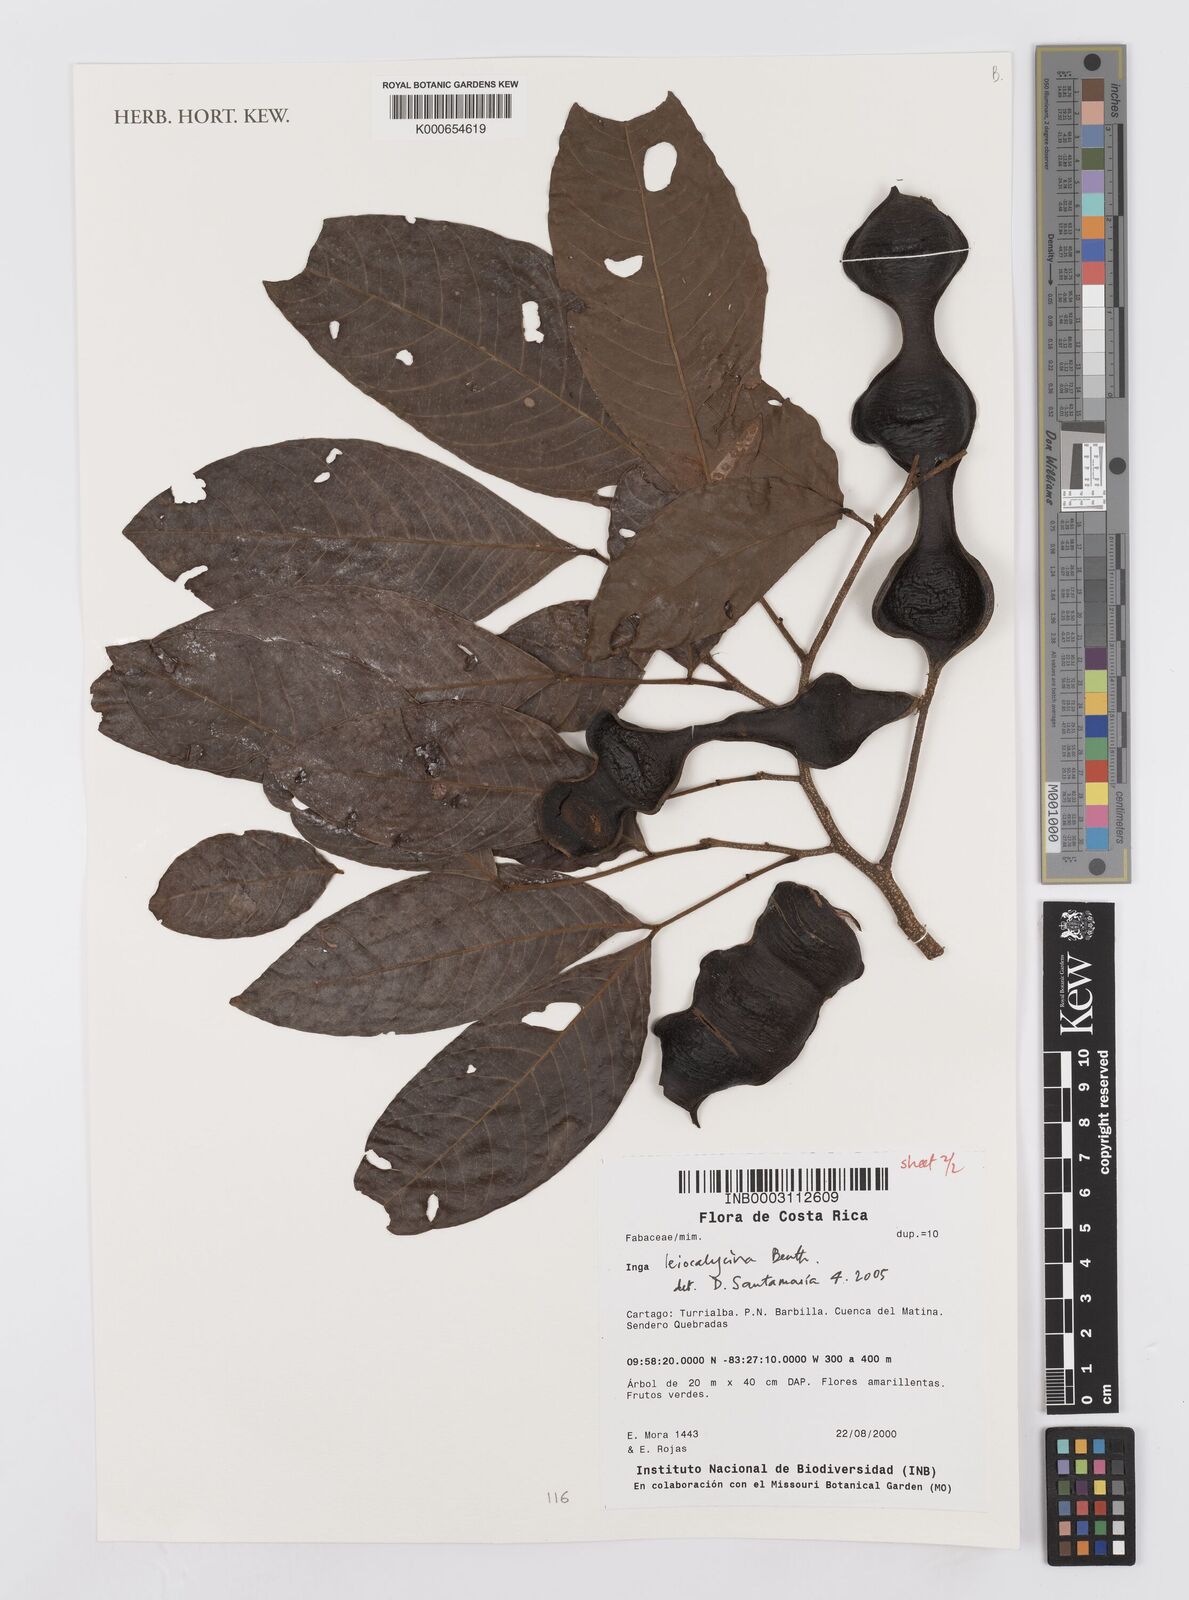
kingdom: Plantae
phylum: Tracheophyta
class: Magnoliopsida
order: Fabales
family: Fabaceae
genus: Inga
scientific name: Inga laevigata
